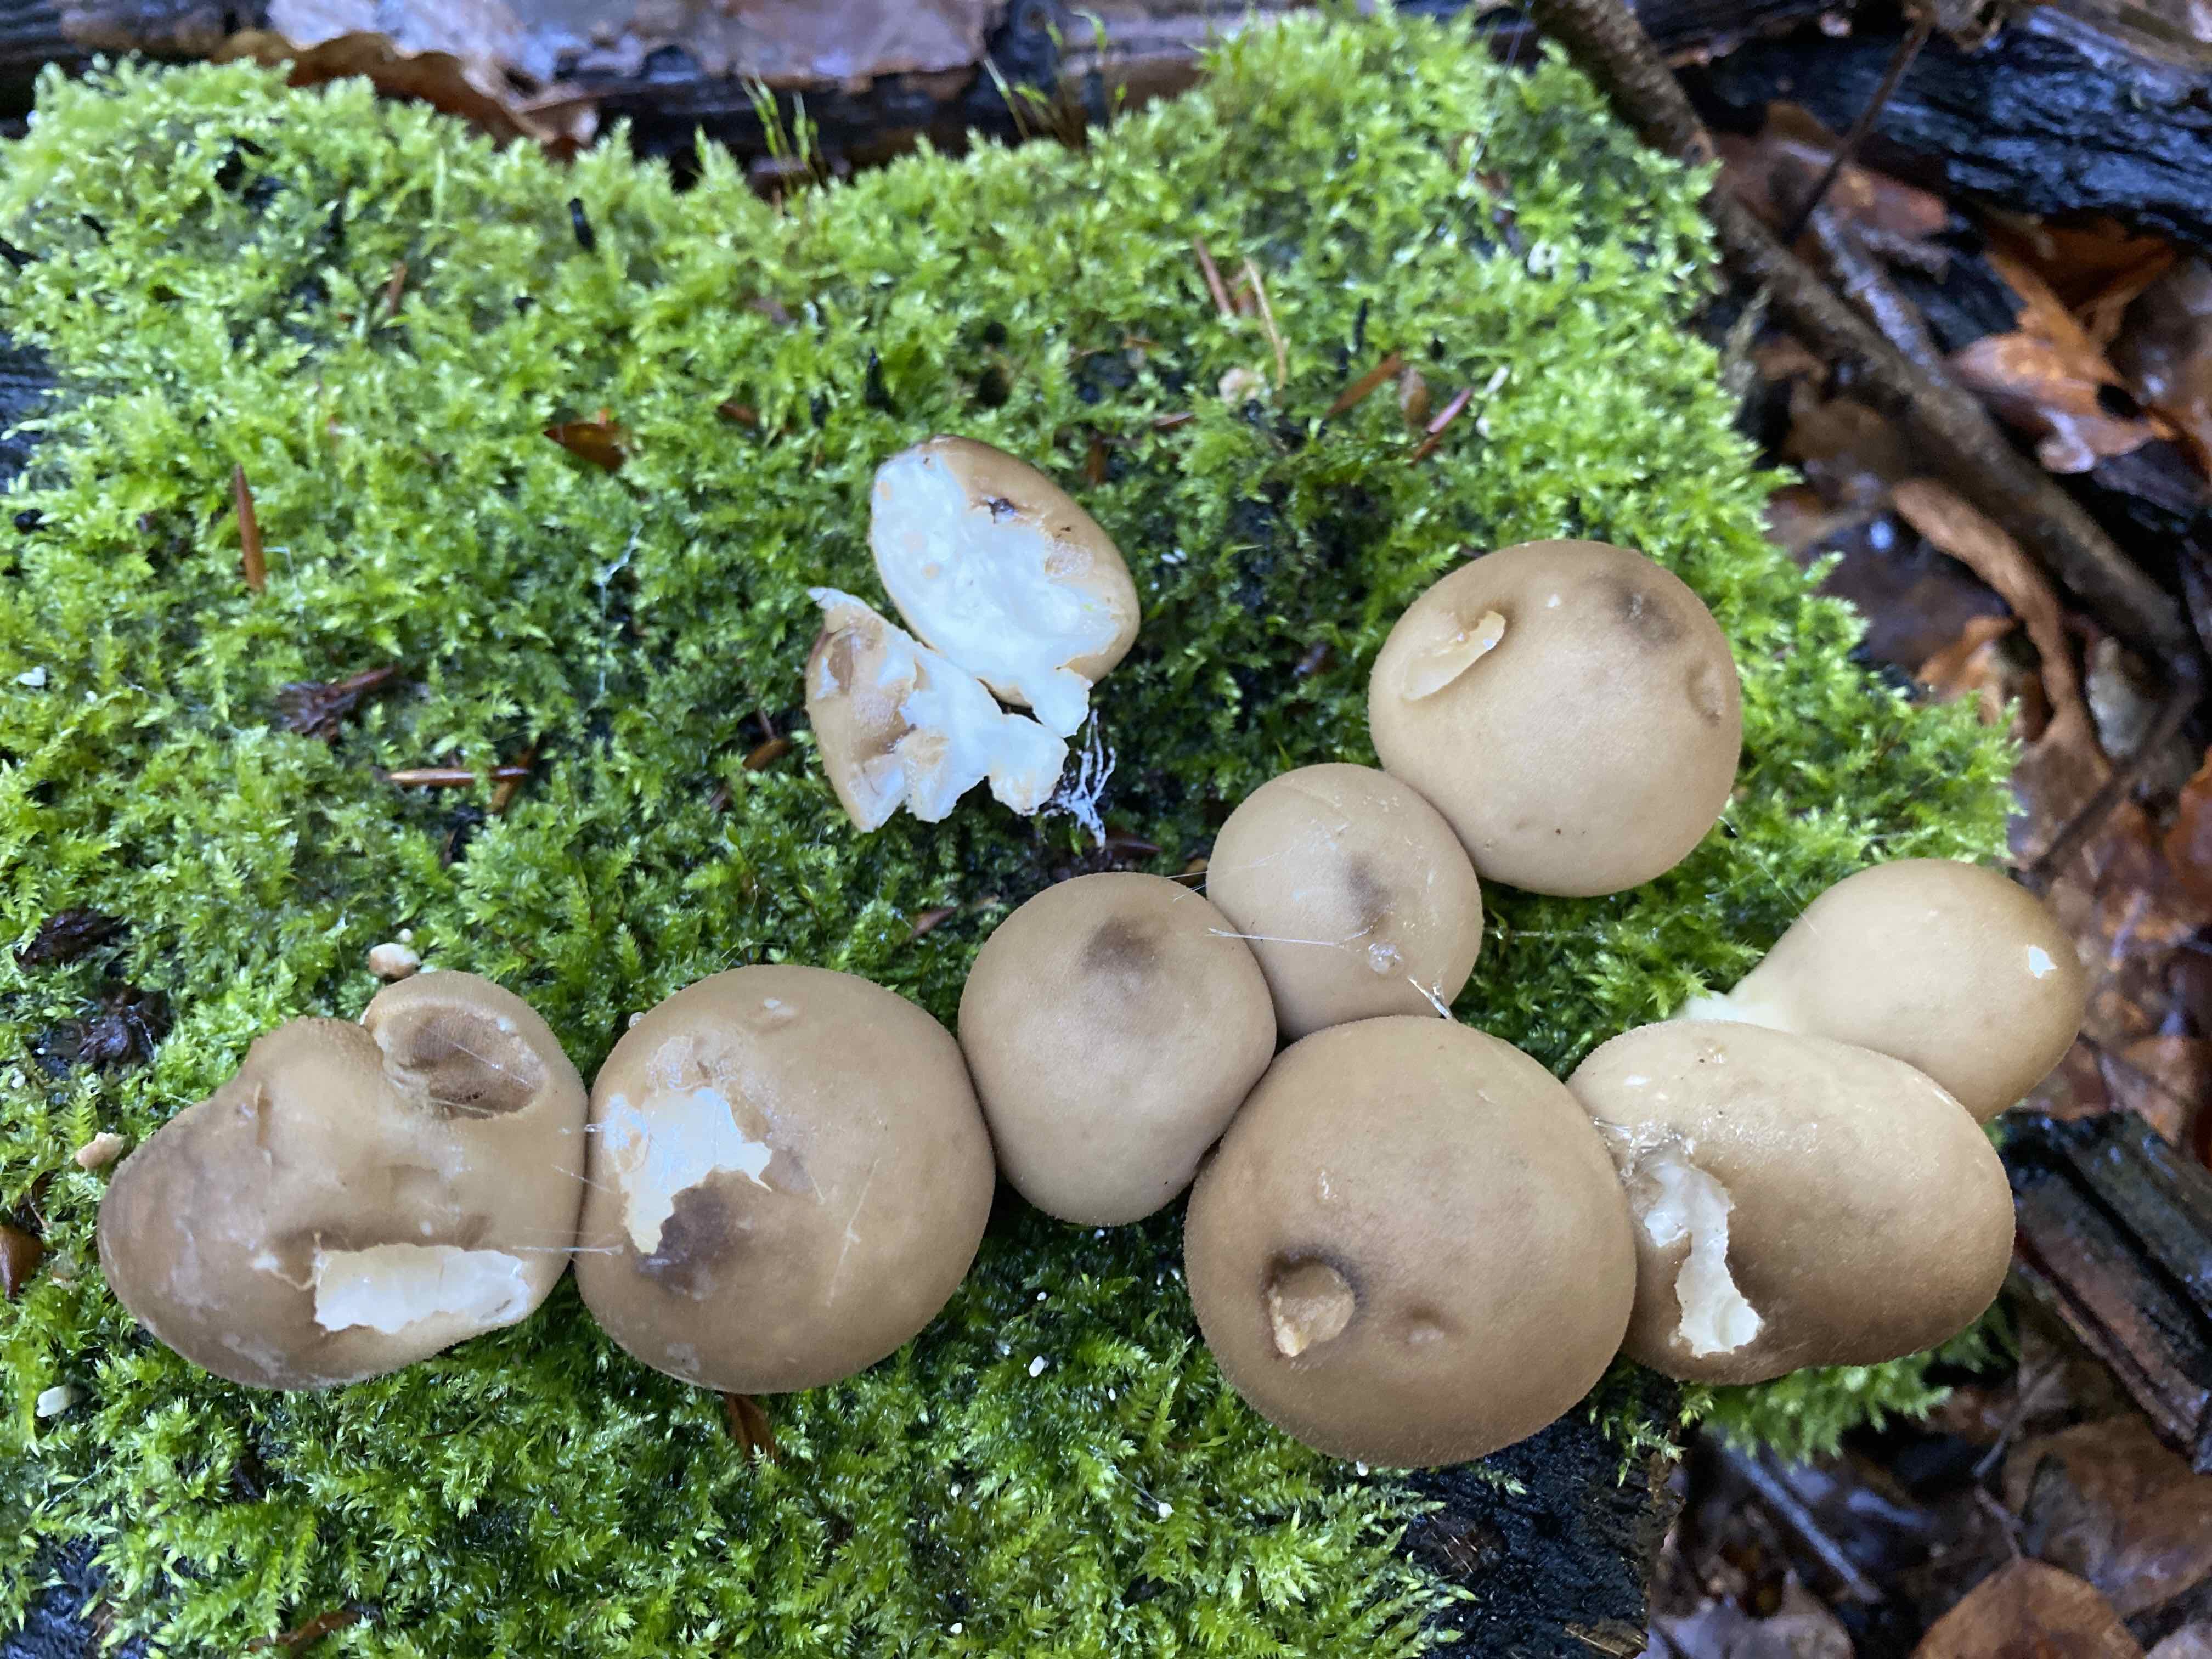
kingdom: Fungi
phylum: Basidiomycota
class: Agaricomycetes
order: Agaricales
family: Lycoperdaceae
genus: Apioperdon
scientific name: Apioperdon pyriforme
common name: pære-støvbold
